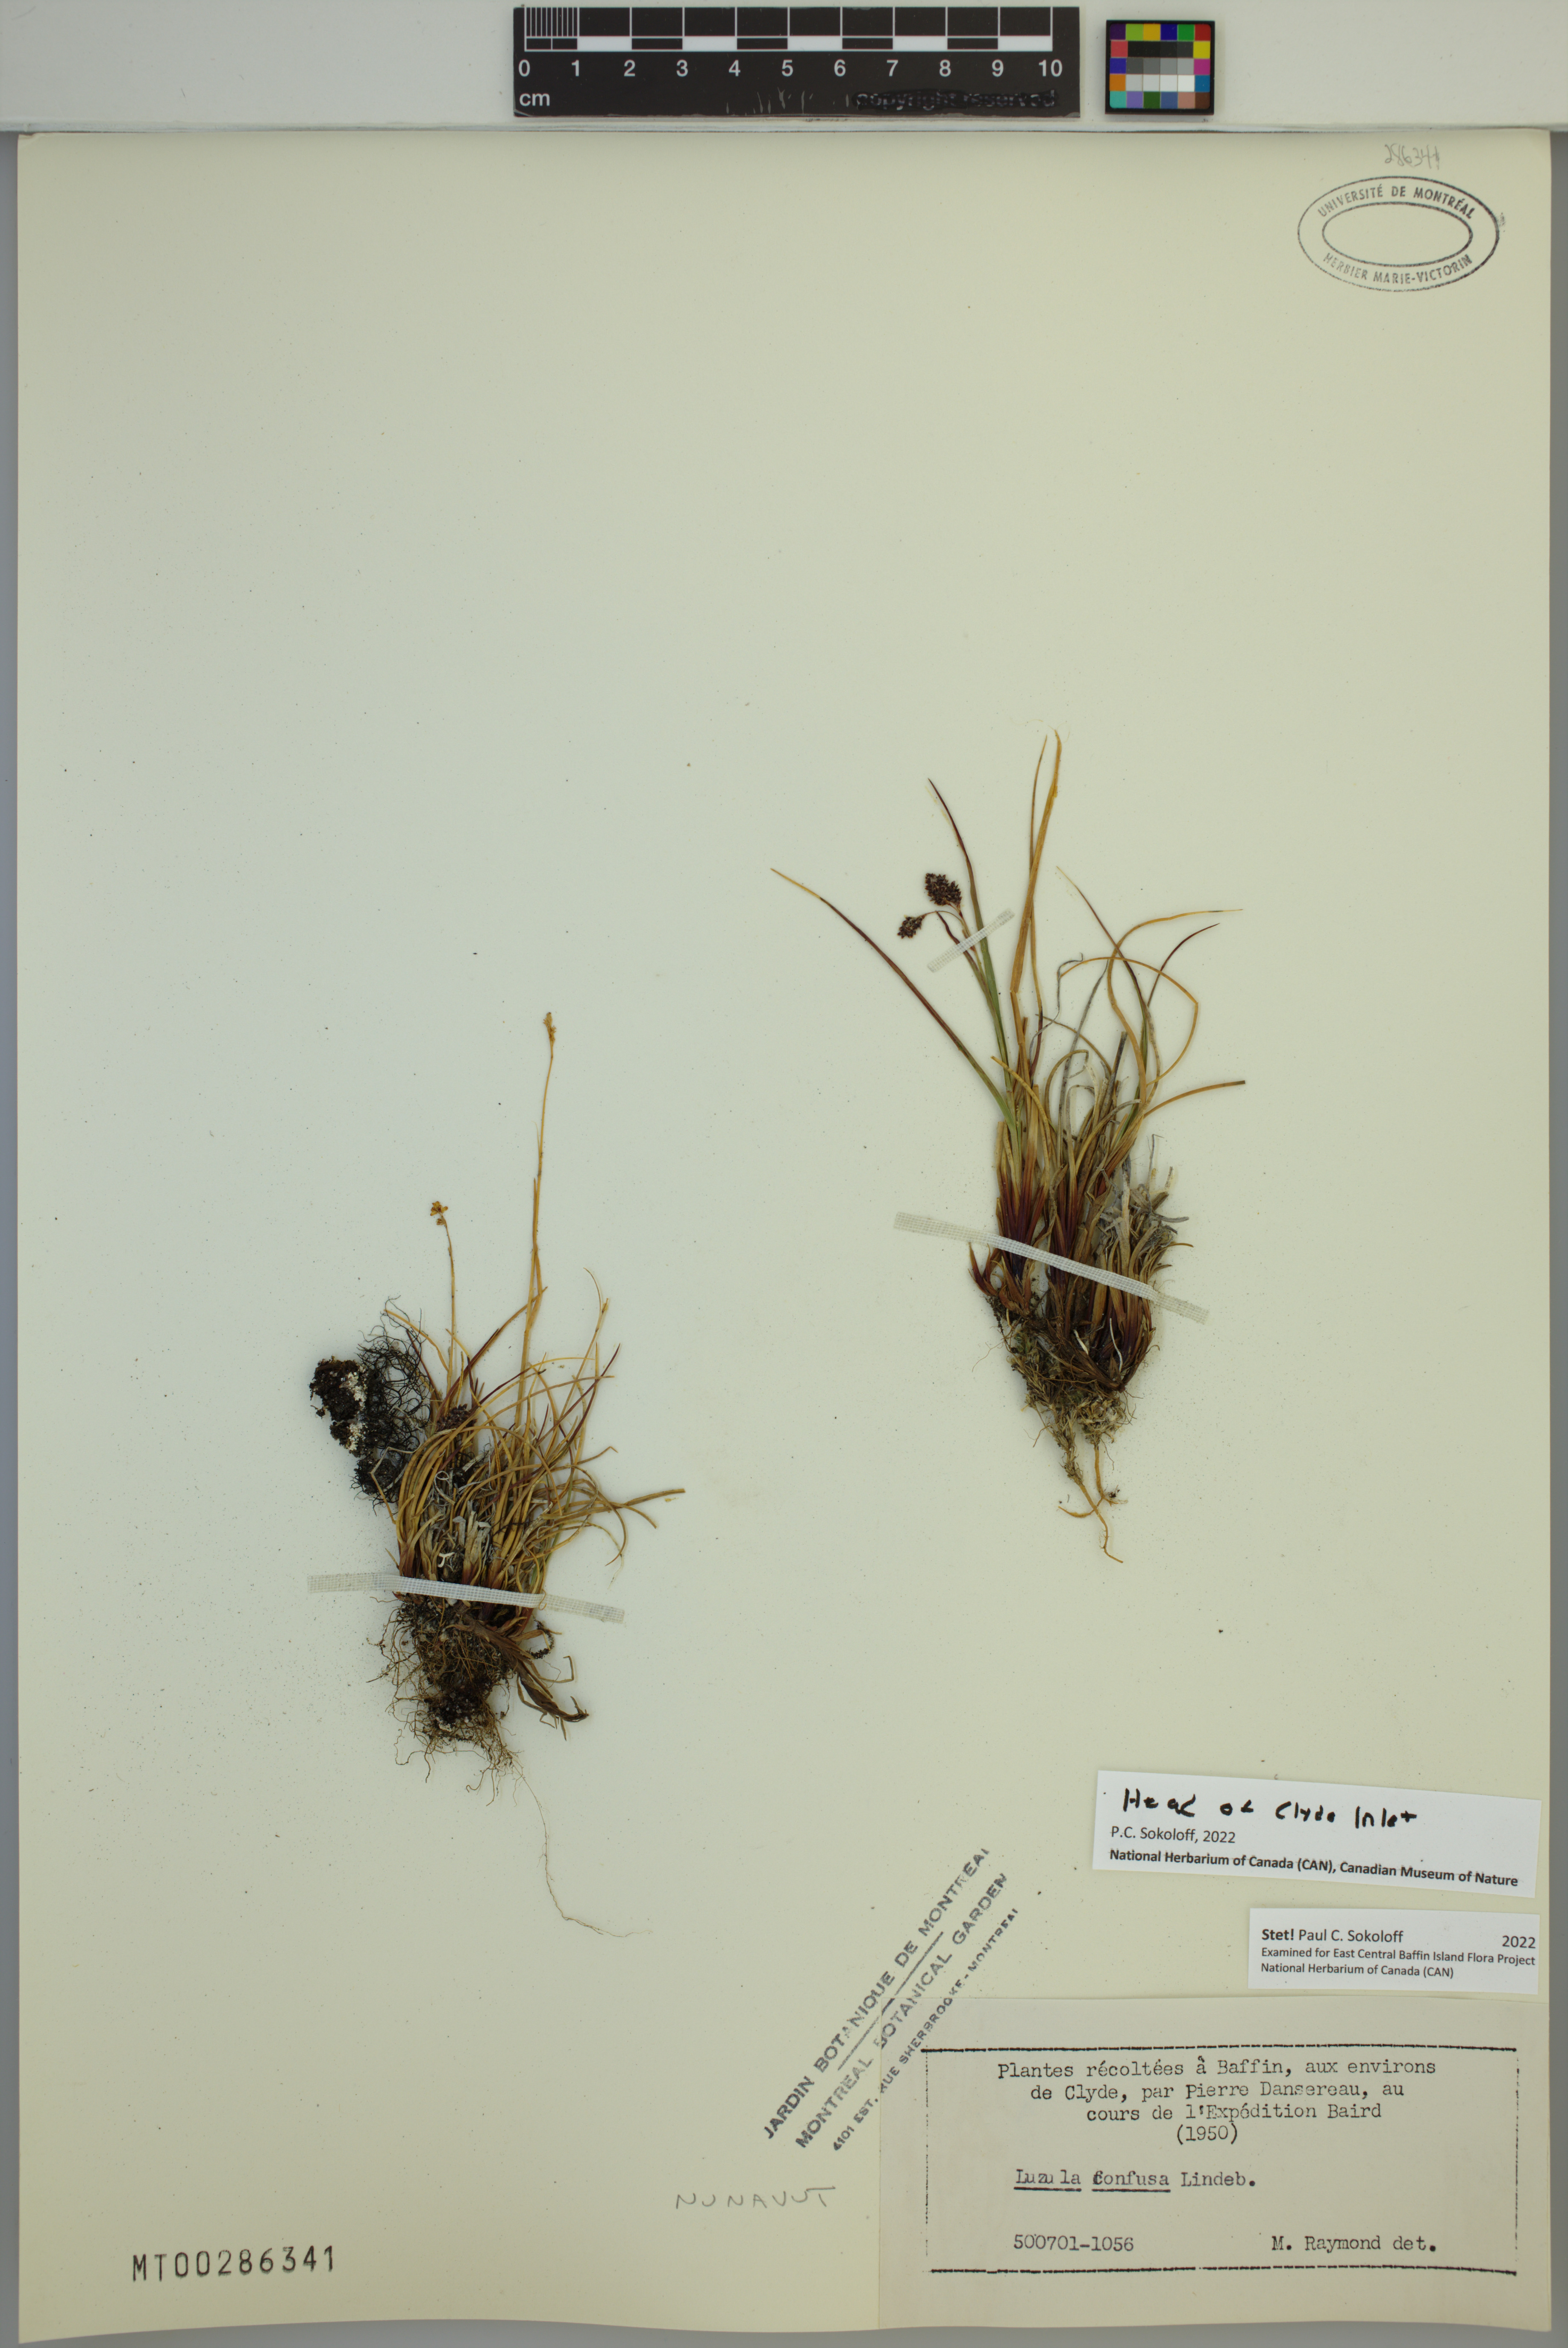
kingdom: Plantae
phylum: Tracheophyta
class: Liliopsida
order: Poales
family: Juncaceae
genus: Luzula
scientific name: Luzula confusa
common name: Northern wood rush
